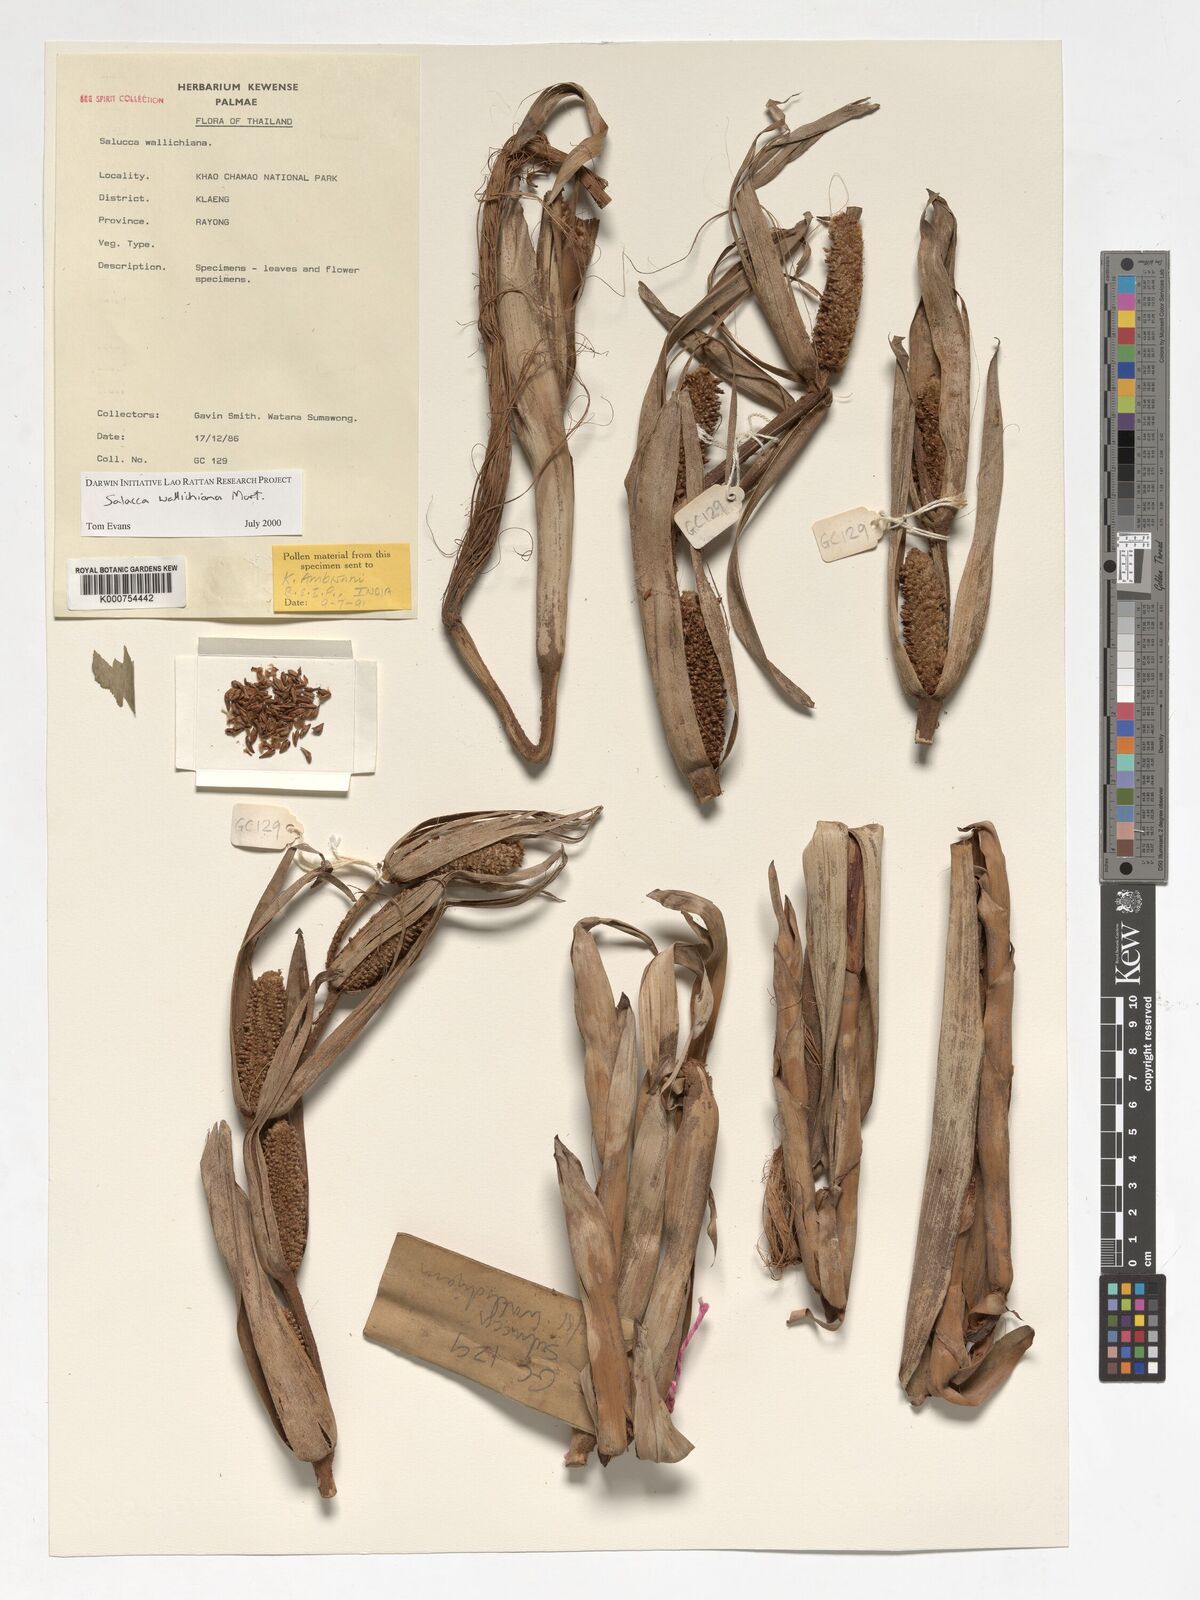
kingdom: Plantae
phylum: Tracheophyta
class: Liliopsida
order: Arecales
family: Arecaceae
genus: Salacca
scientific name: Salacca wallichiana
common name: Rakum palm
